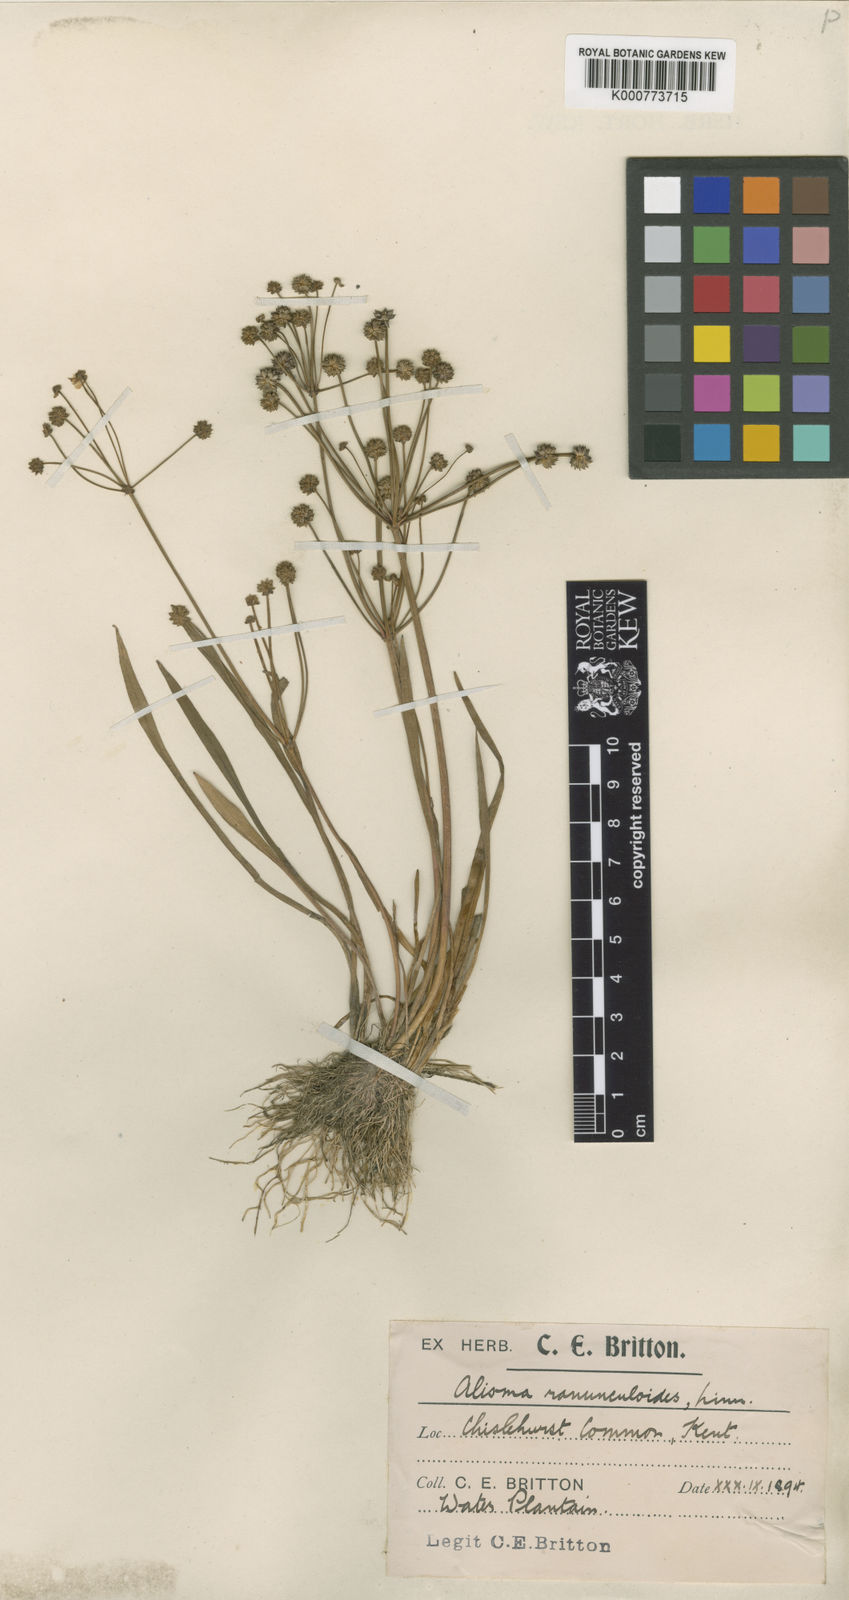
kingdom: Plantae
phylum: Tracheophyta
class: Liliopsida
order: Alismatales
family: Alismataceae
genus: Baldellia
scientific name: Baldellia ranunculoides
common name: Lesser water-plantain
